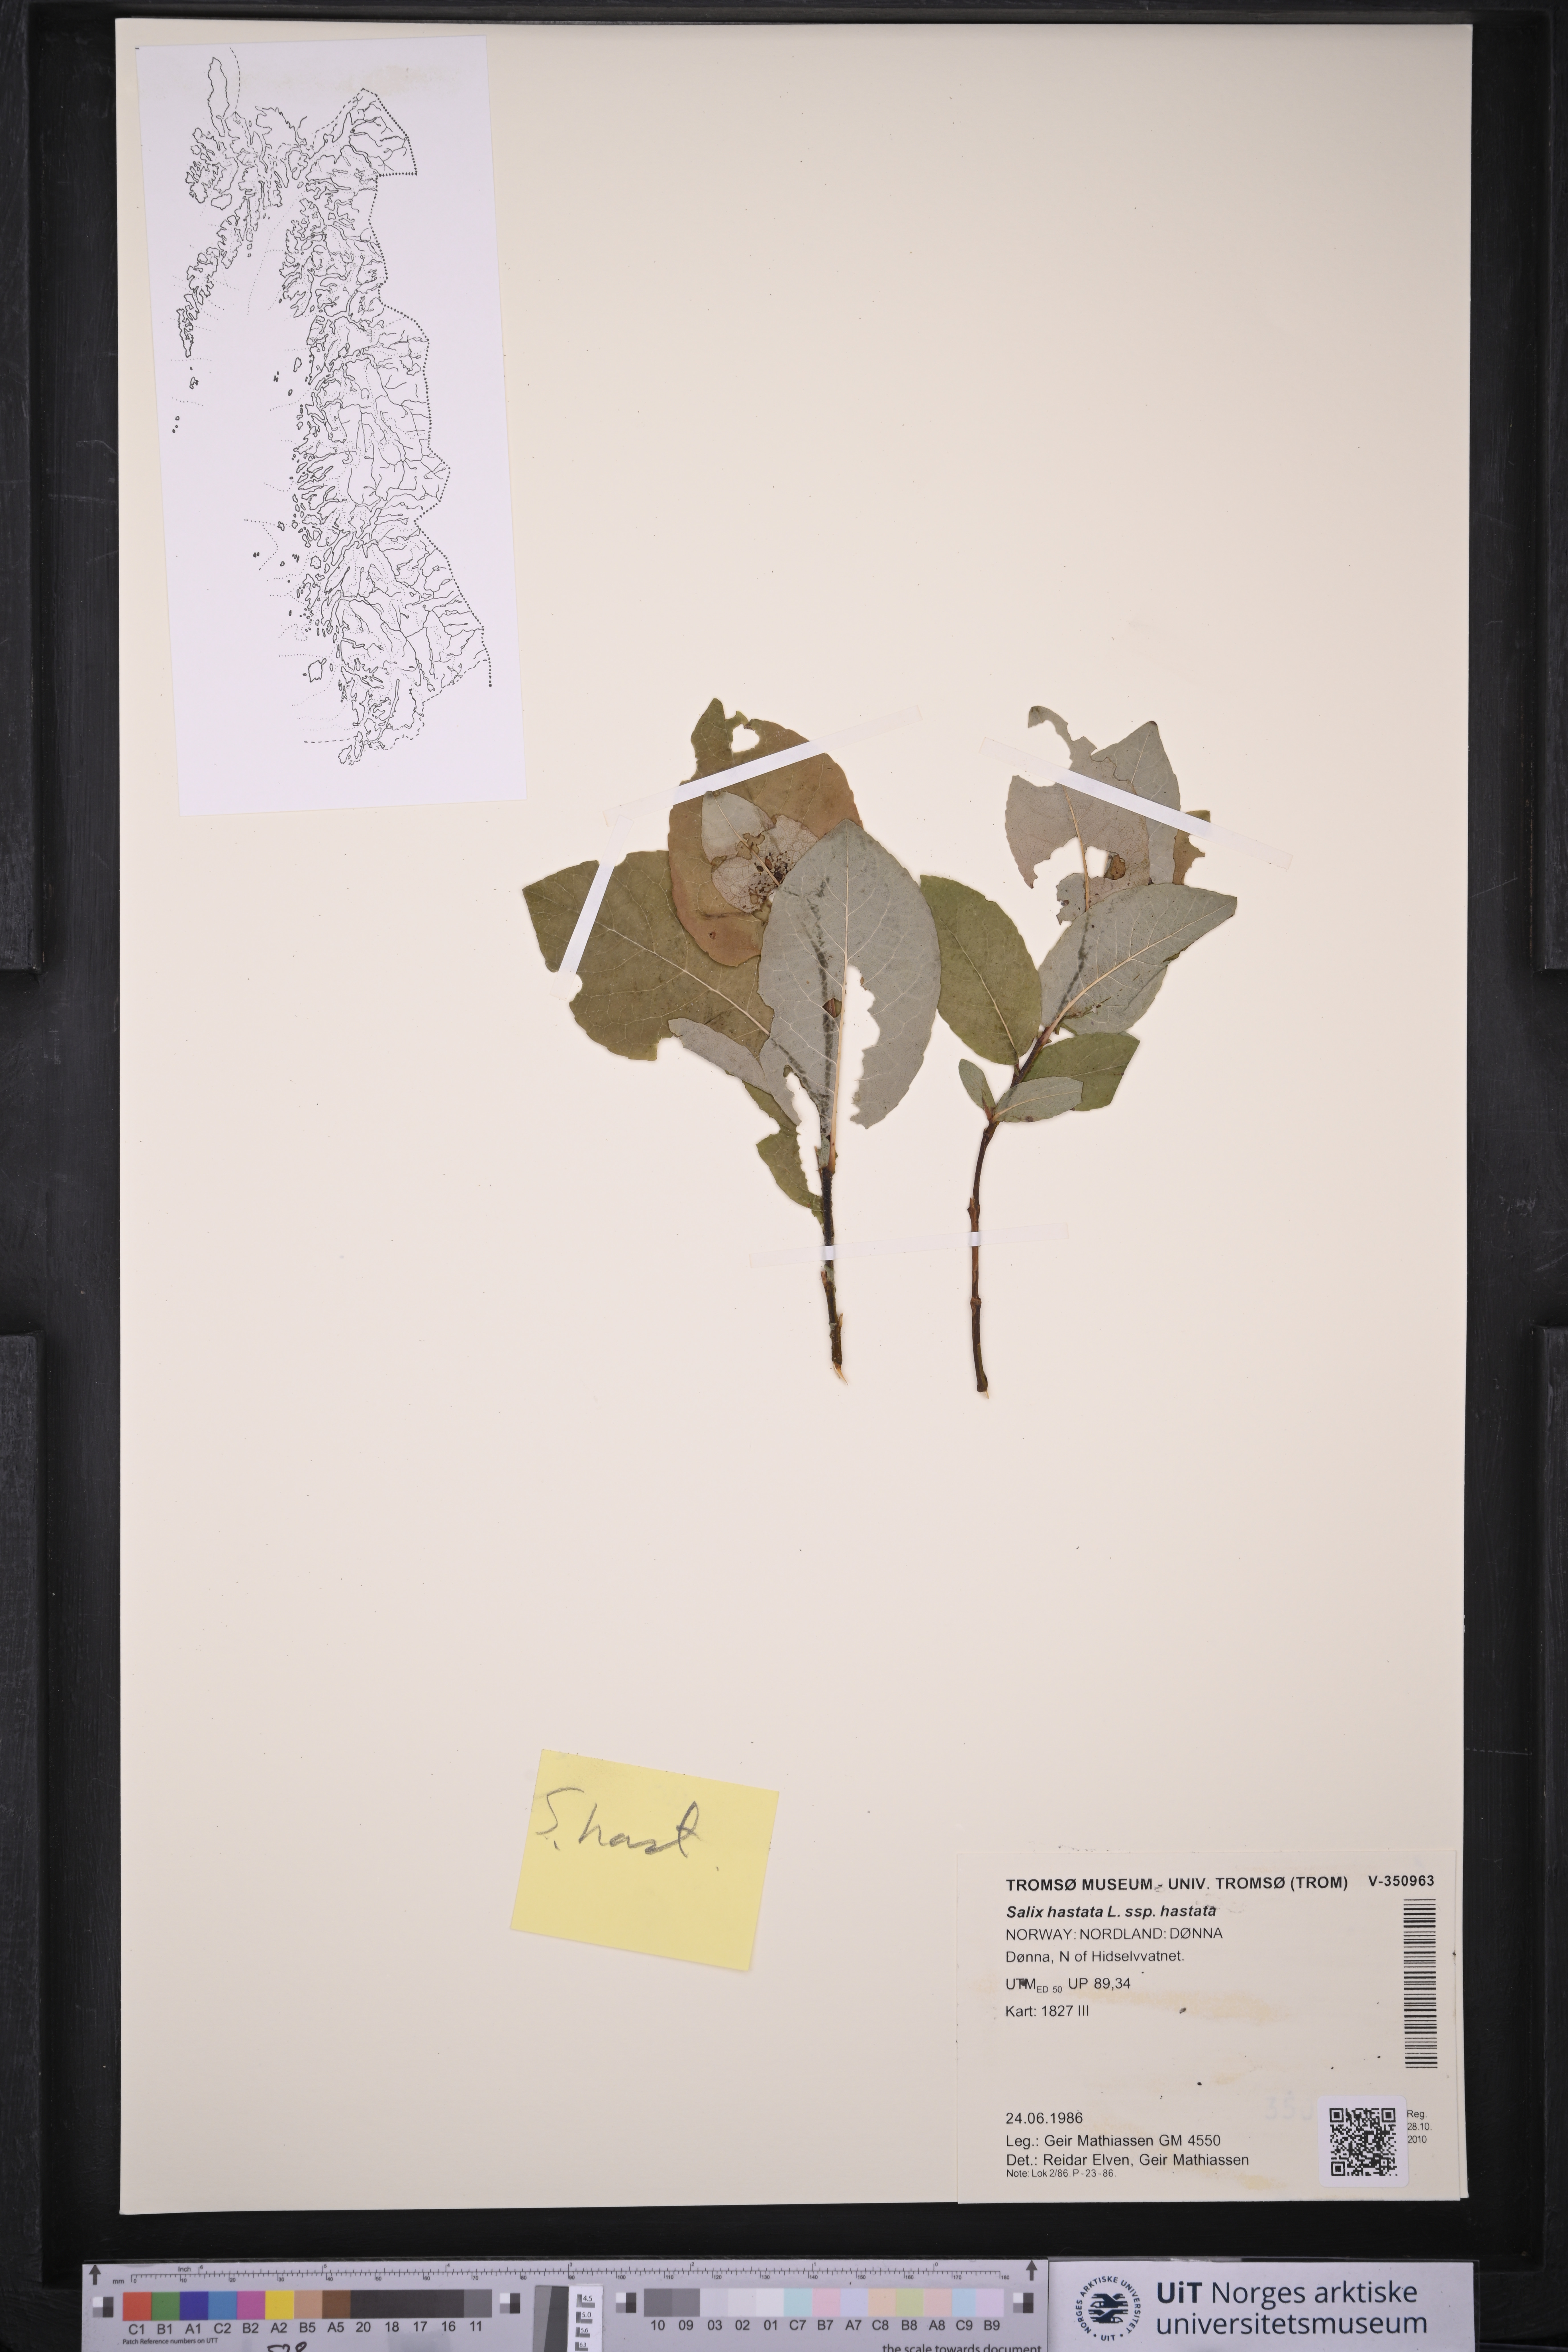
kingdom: Plantae
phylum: Tracheophyta
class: Magnoliopsida
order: Malpighiales
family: Salicaceae
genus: Salix
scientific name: Salix hastata
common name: Halberd willow
